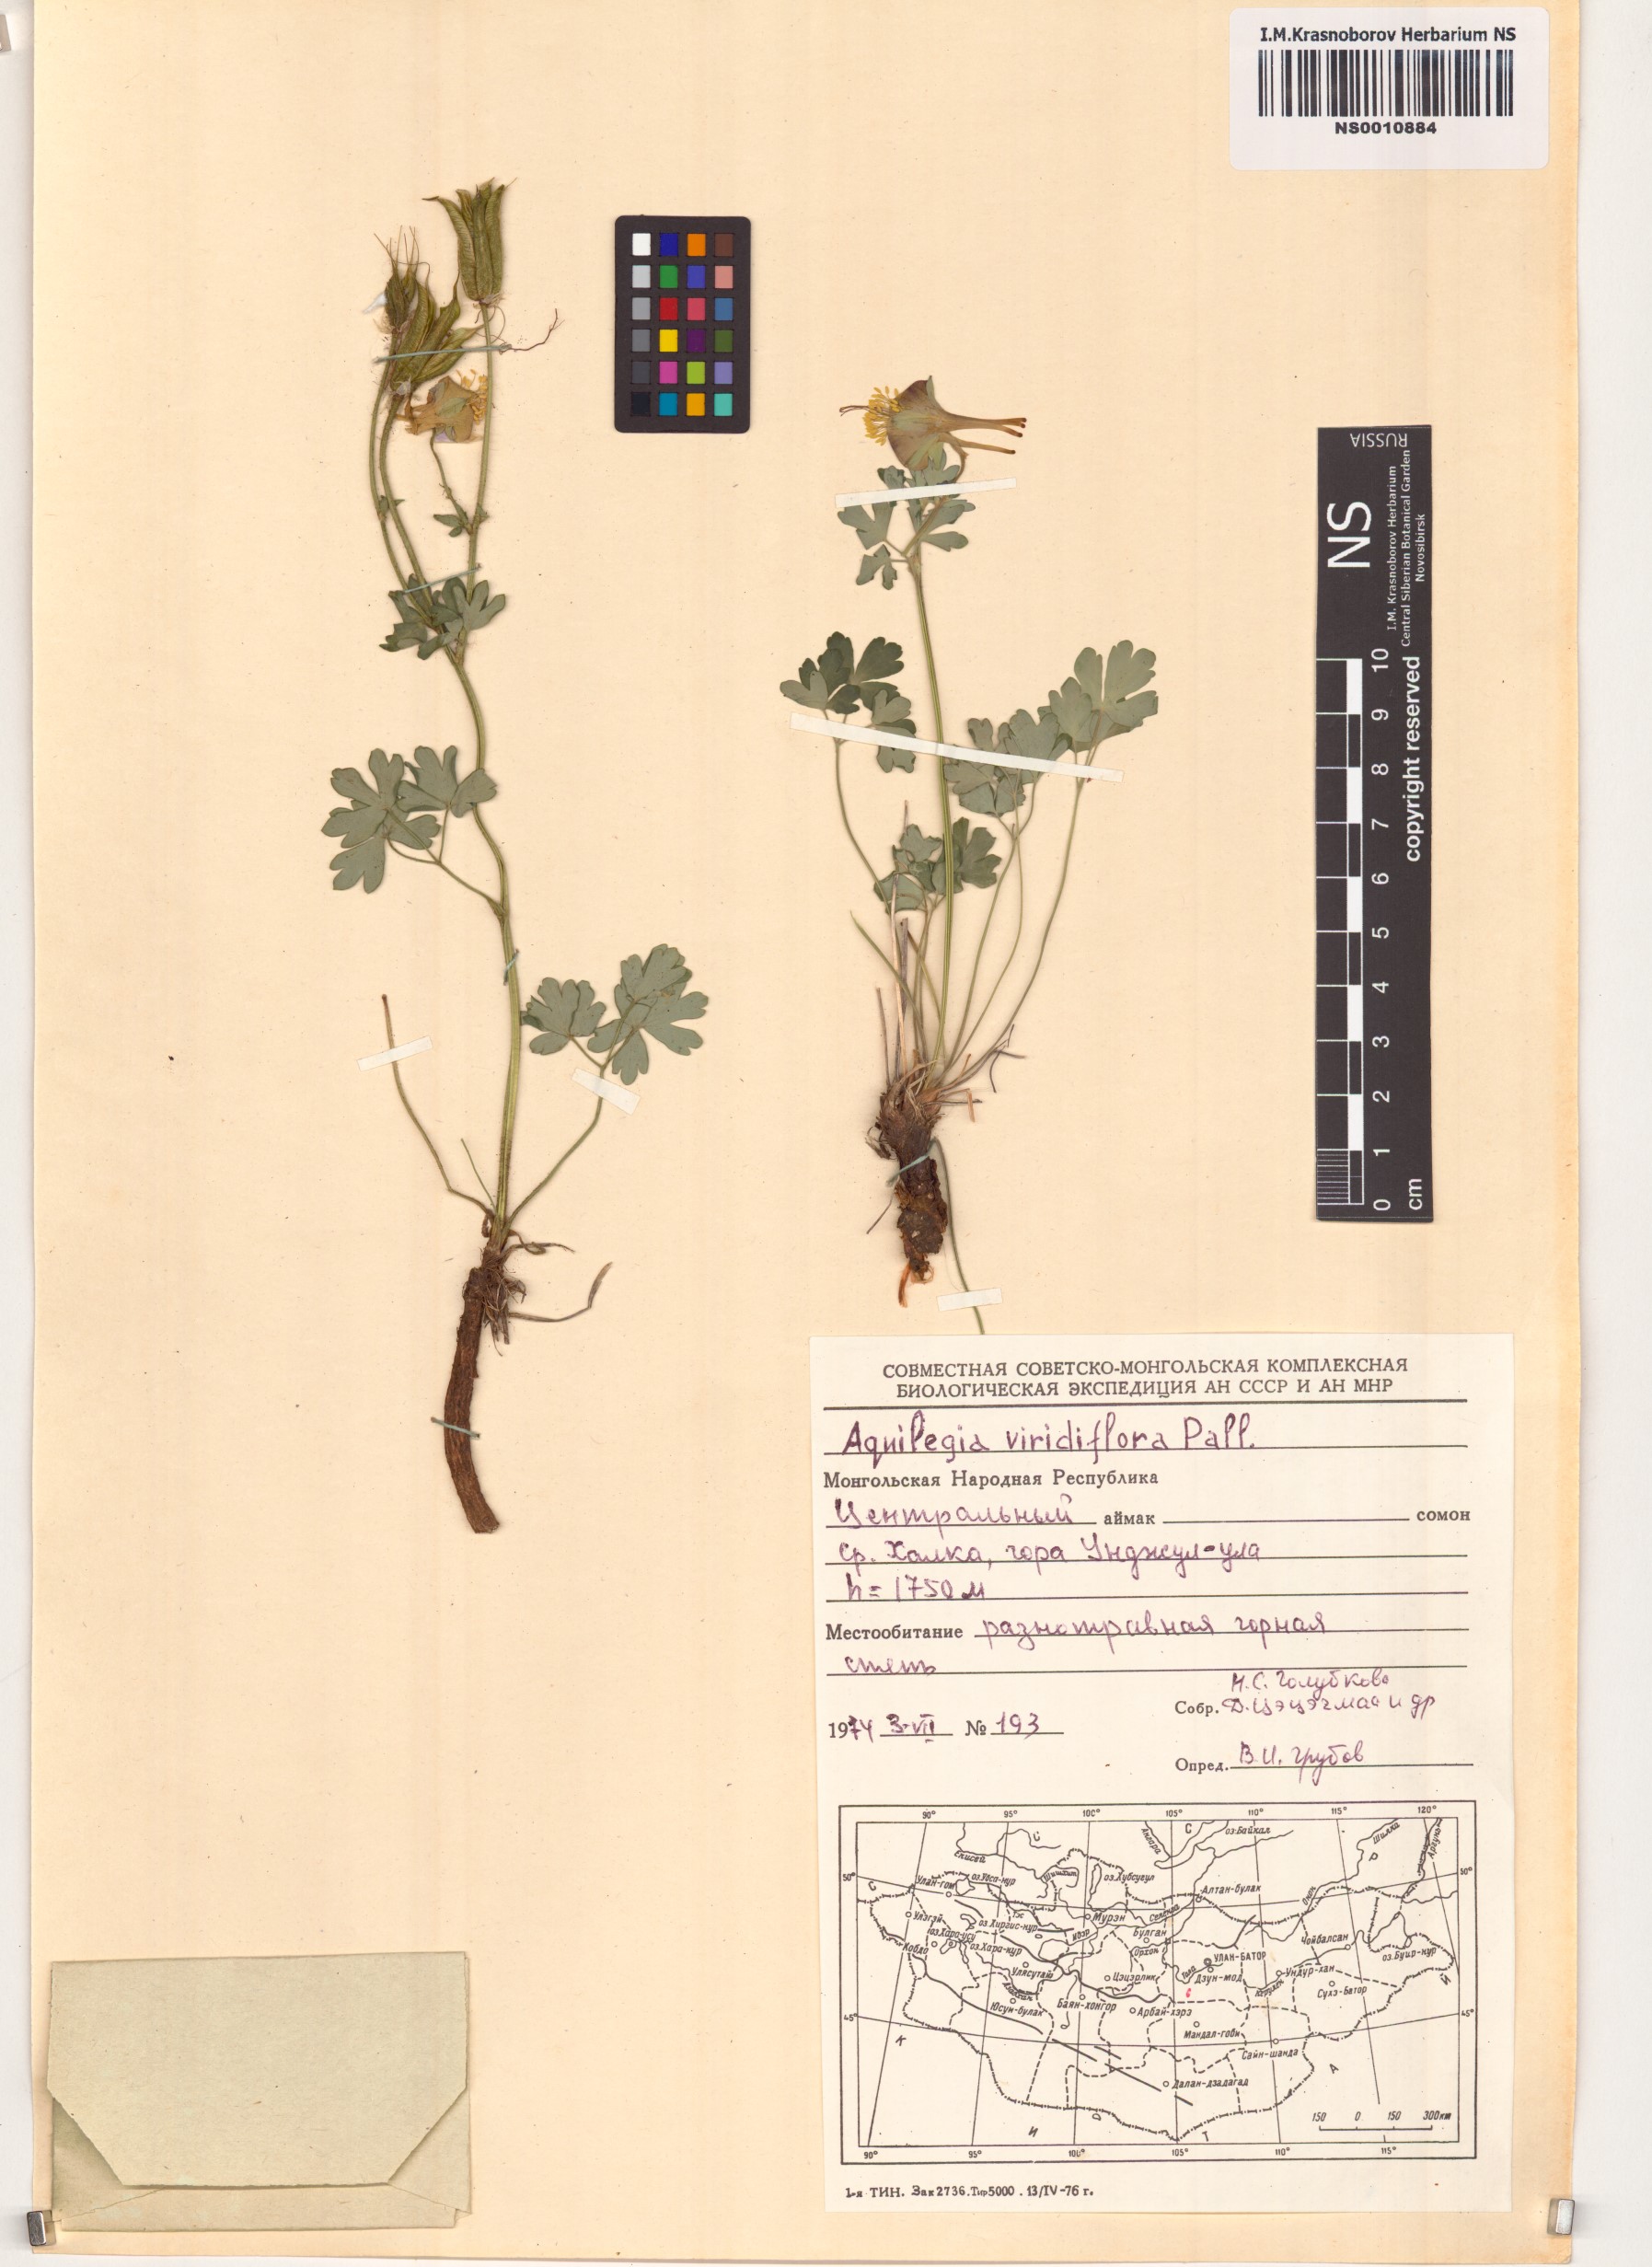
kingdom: Plantae
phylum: Tracheophyta
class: Magnoliopsida
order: Ranunculales
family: Ranunculaceae
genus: Aquilegia
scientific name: Aquilegia viridiflora
